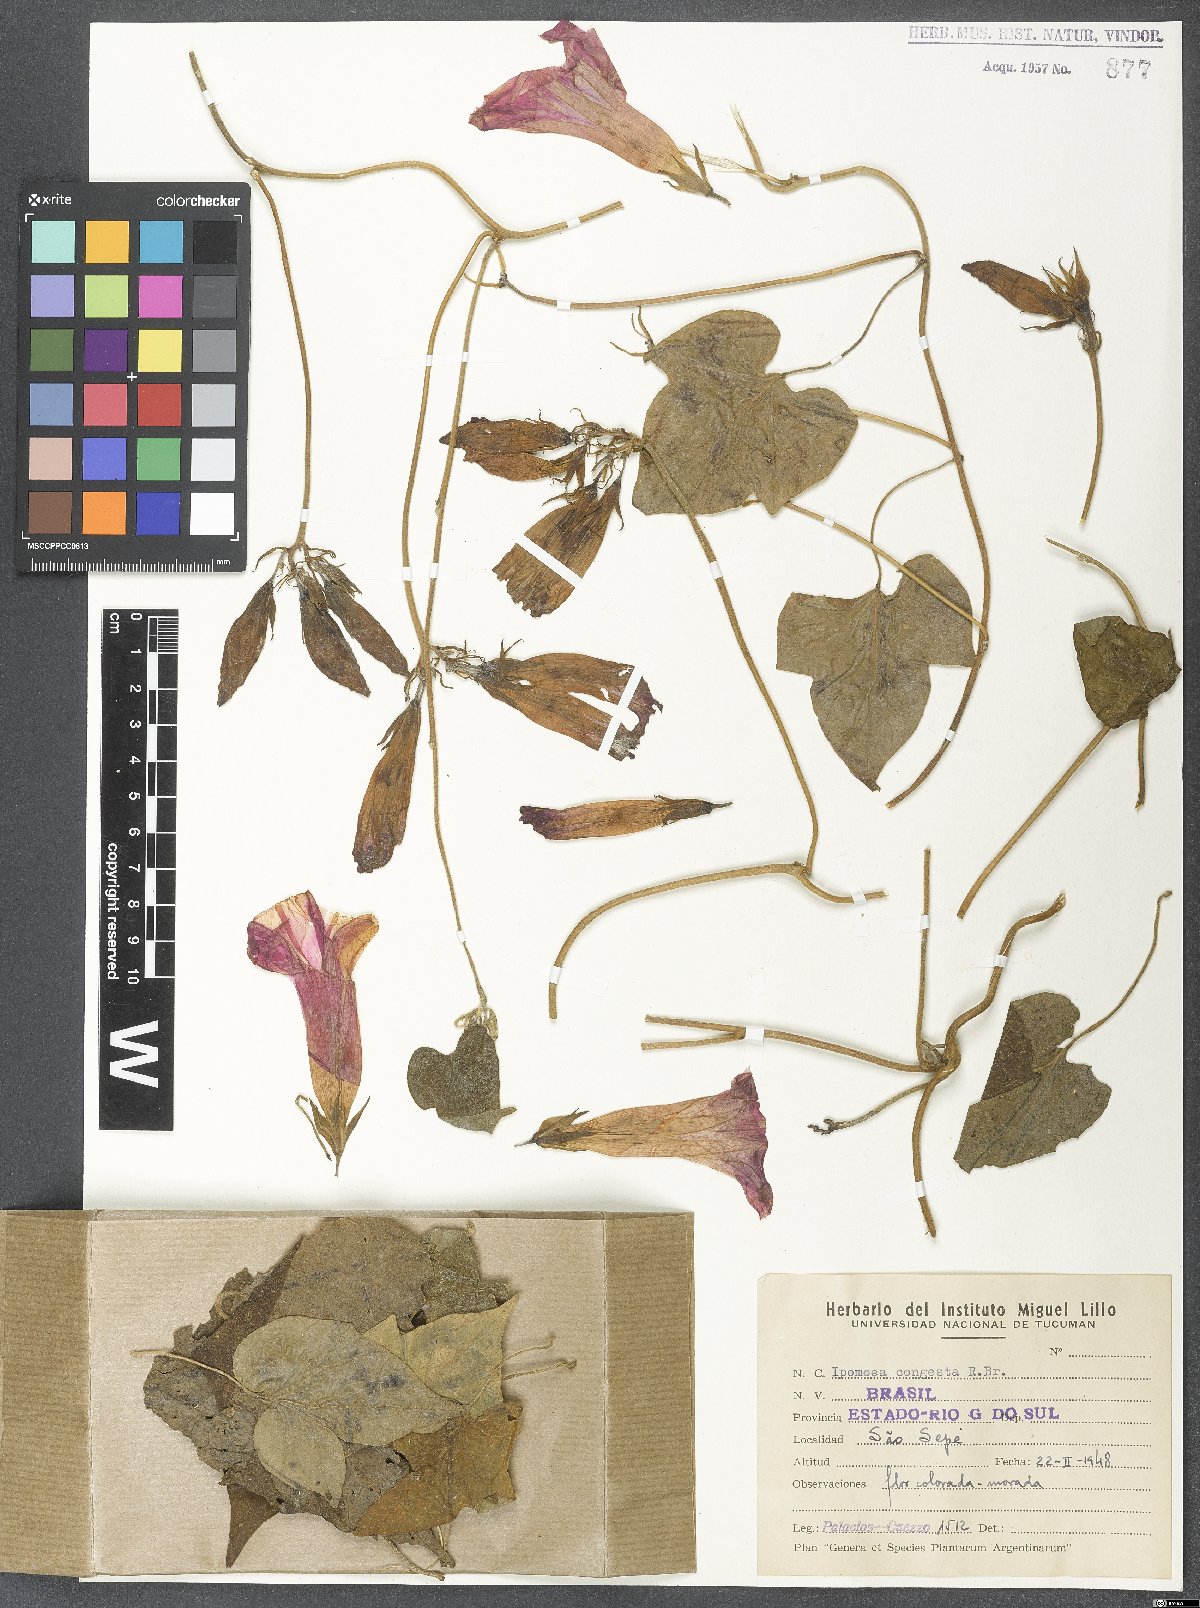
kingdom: Plantae
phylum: Tracheophyta
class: Magnoliopsida
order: Solanales
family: Convolvulaceae
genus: Ipomoea
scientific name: Ipomoea indica
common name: Blue dawnflower
